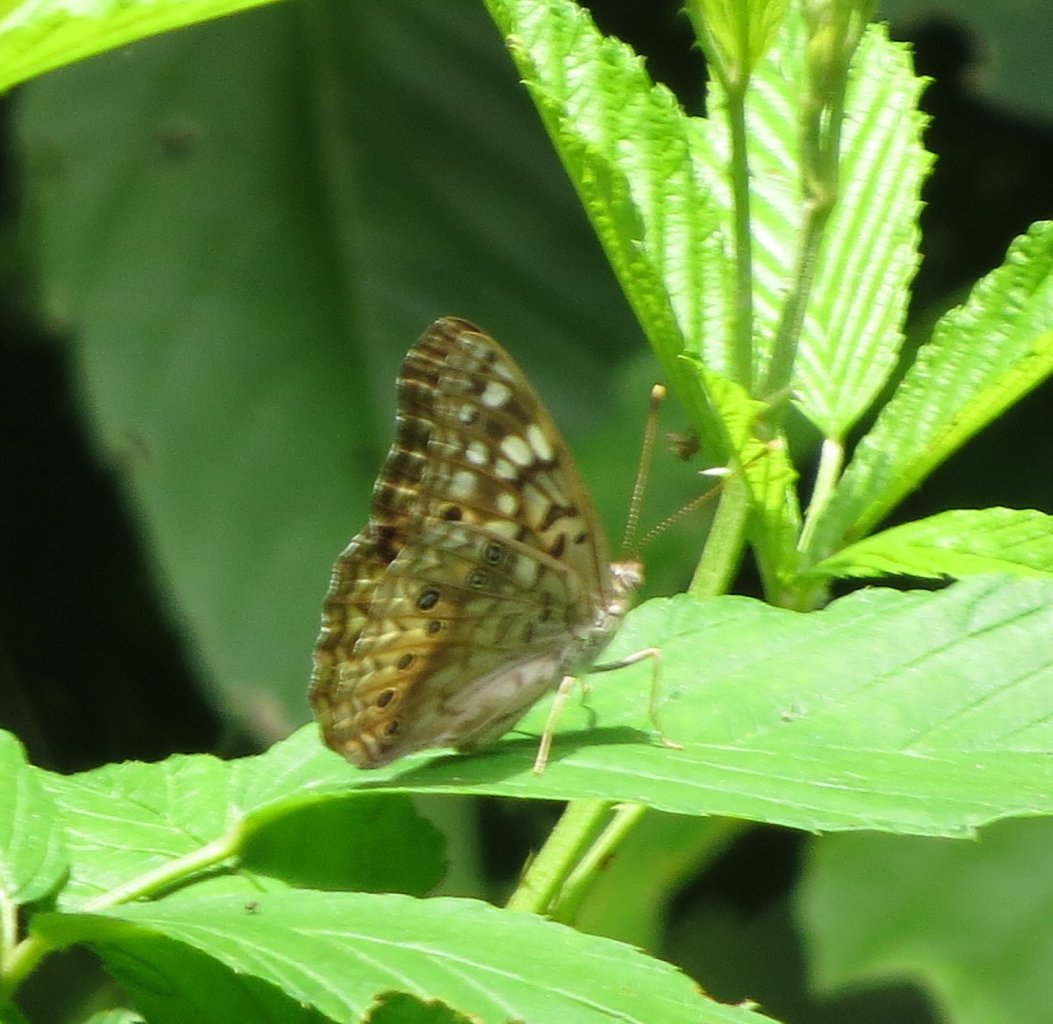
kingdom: Animalia
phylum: Arthropoda
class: Insecta
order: Lepidoptera
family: Nymphalidae
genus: Asterocampa
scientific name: Asterocampa celtis
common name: Hackberry Emperor
